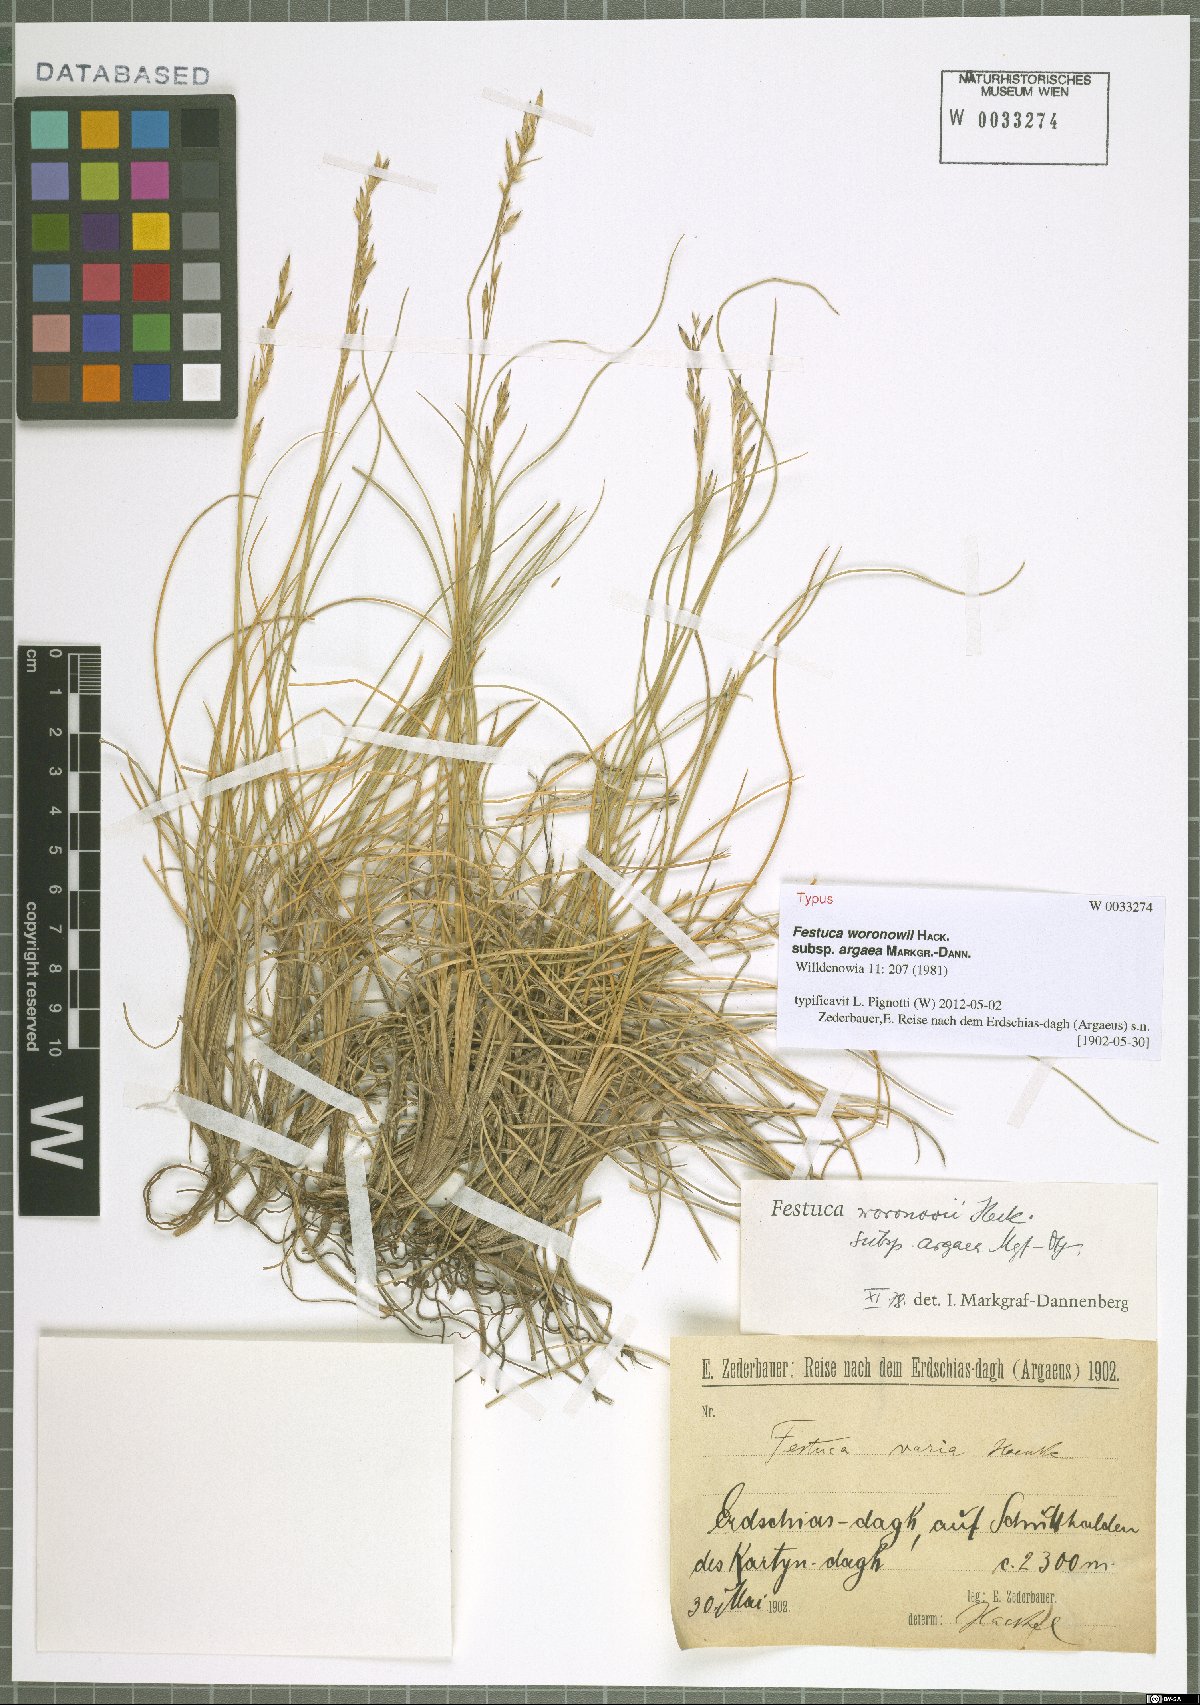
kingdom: Plantae
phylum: Tracheophyta
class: Liliopsida
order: Poales
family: Poaceae
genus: Festuca
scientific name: Festuca varia
